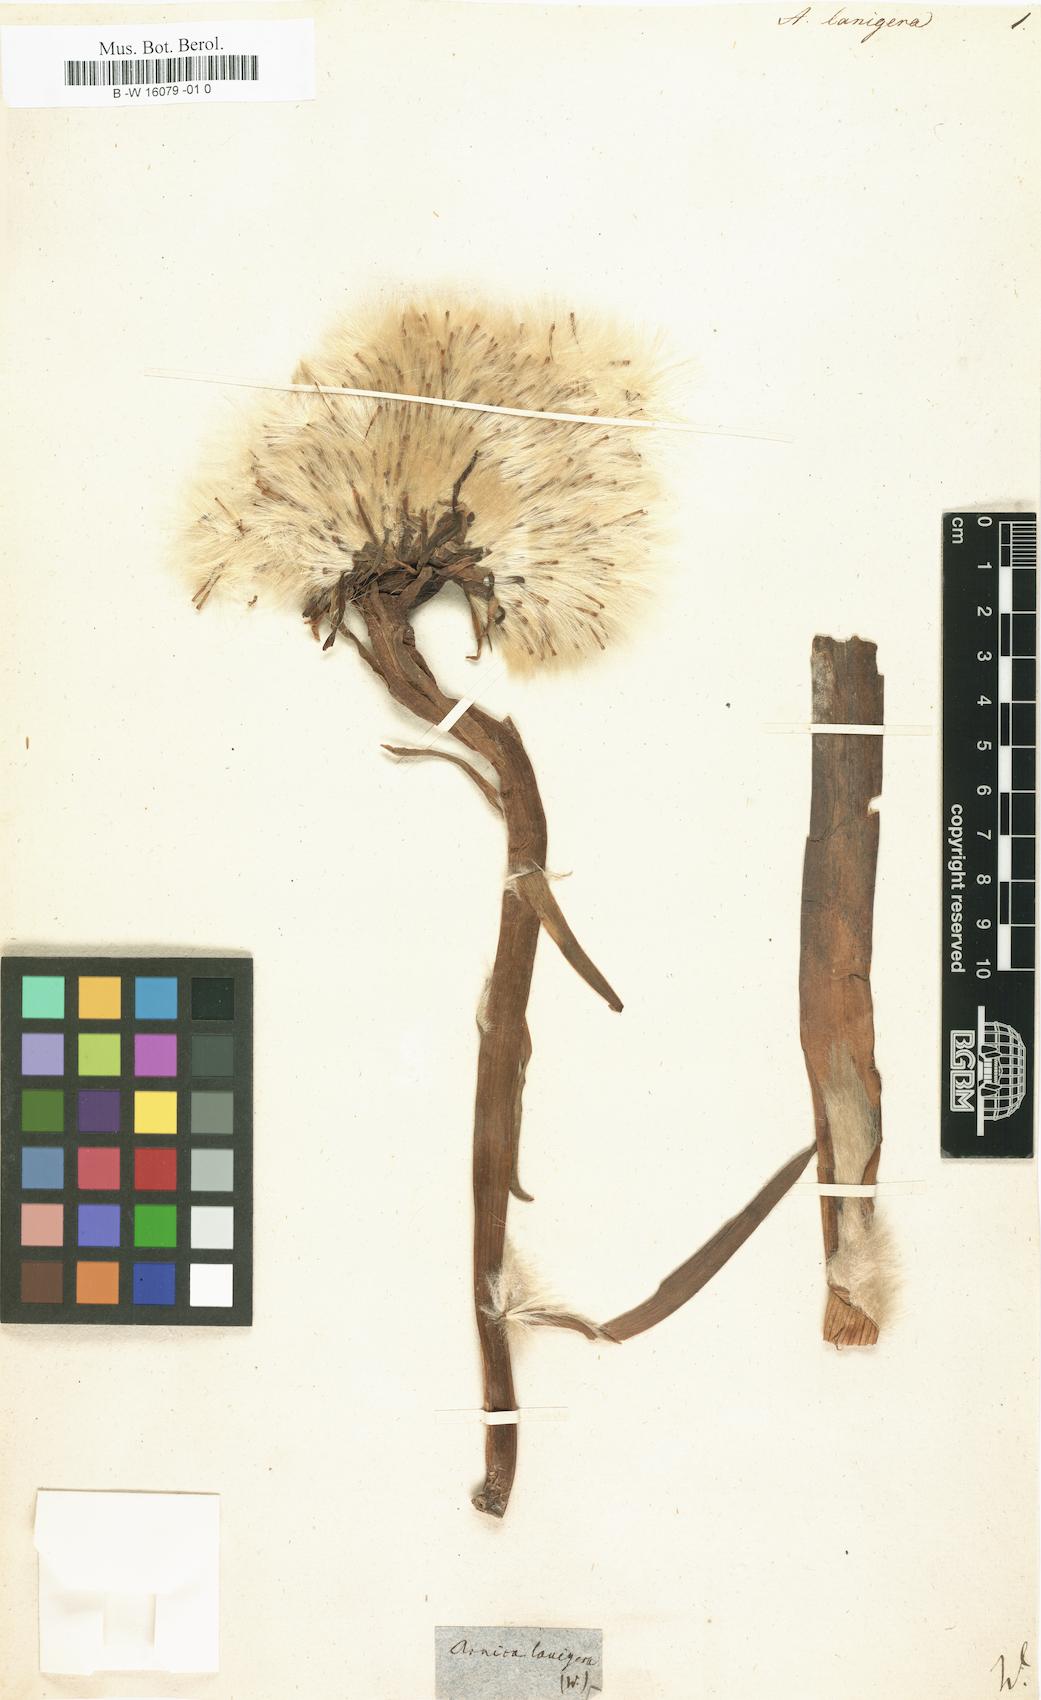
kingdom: Plantae
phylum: Tracheophyta
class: Magnoliopsida
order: Asterales
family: Asteraceae
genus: Senecio
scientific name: Senecio scopolii
